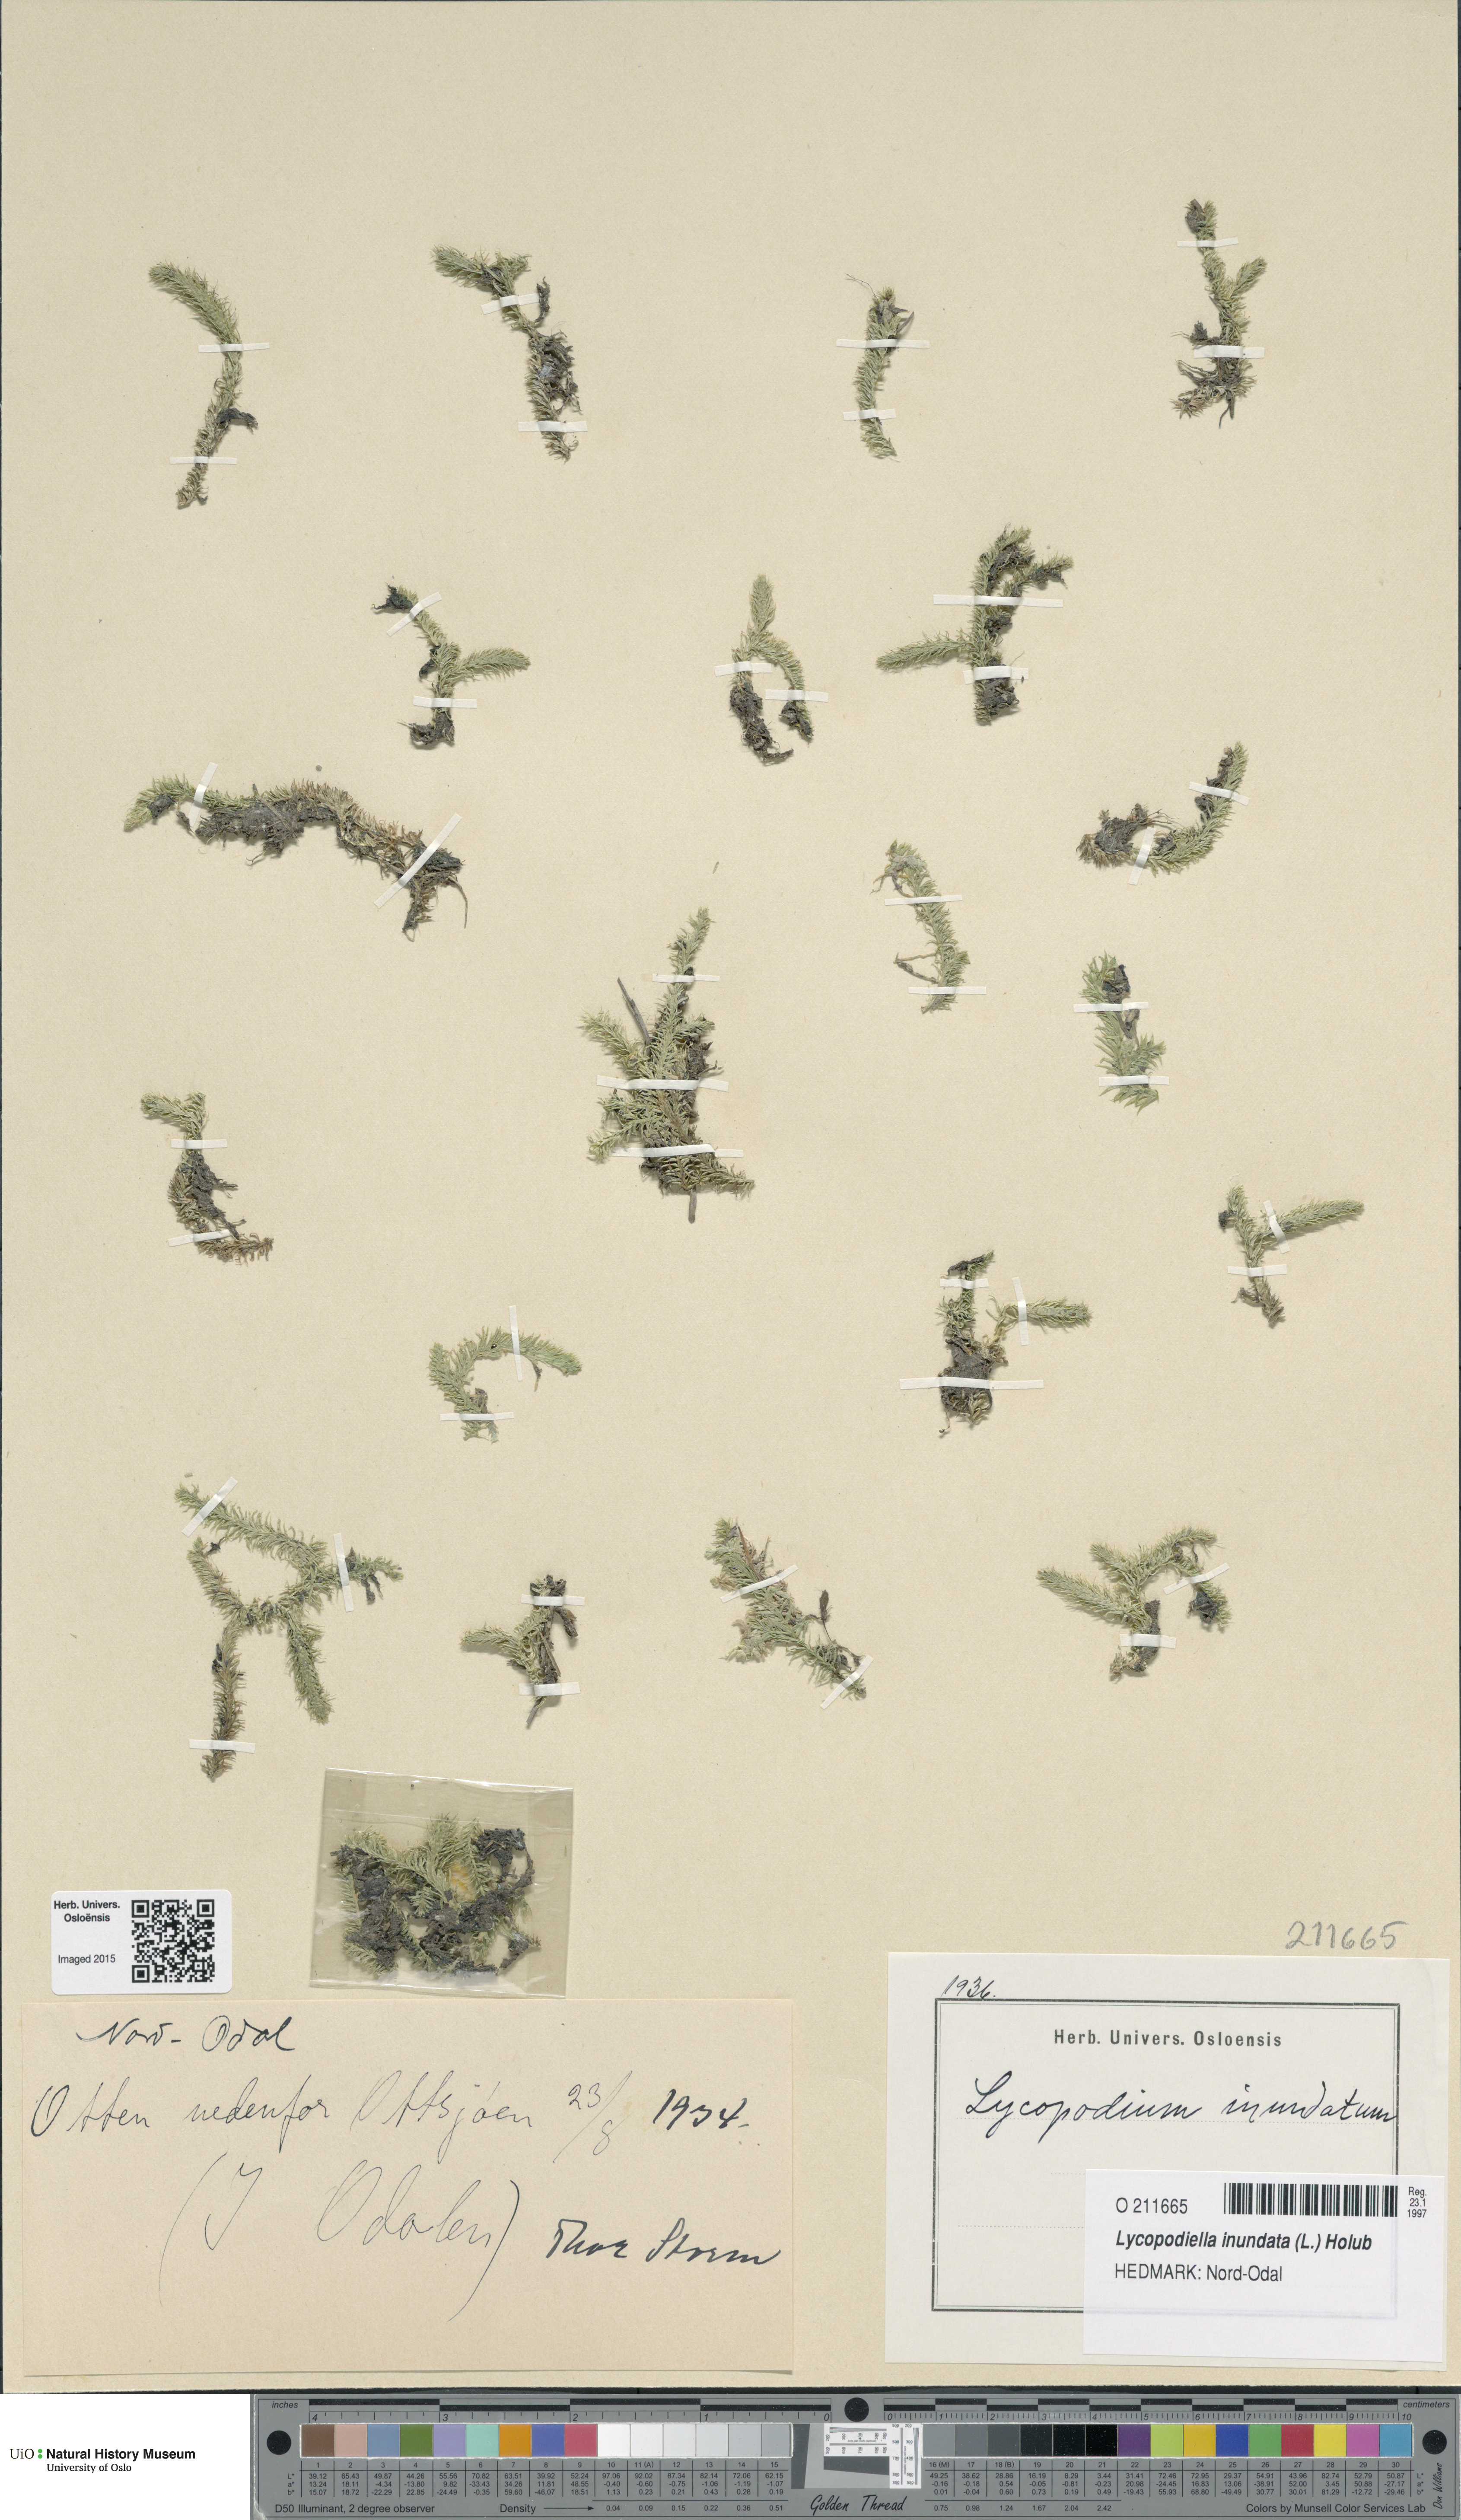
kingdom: Plantae
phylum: Tracheophyta
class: Lycopodiopsida
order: Lycopodiales
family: Lycopodiaceae
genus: Lycopodiella
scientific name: Lycopodiella inundata
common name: Marsh clubmoss
